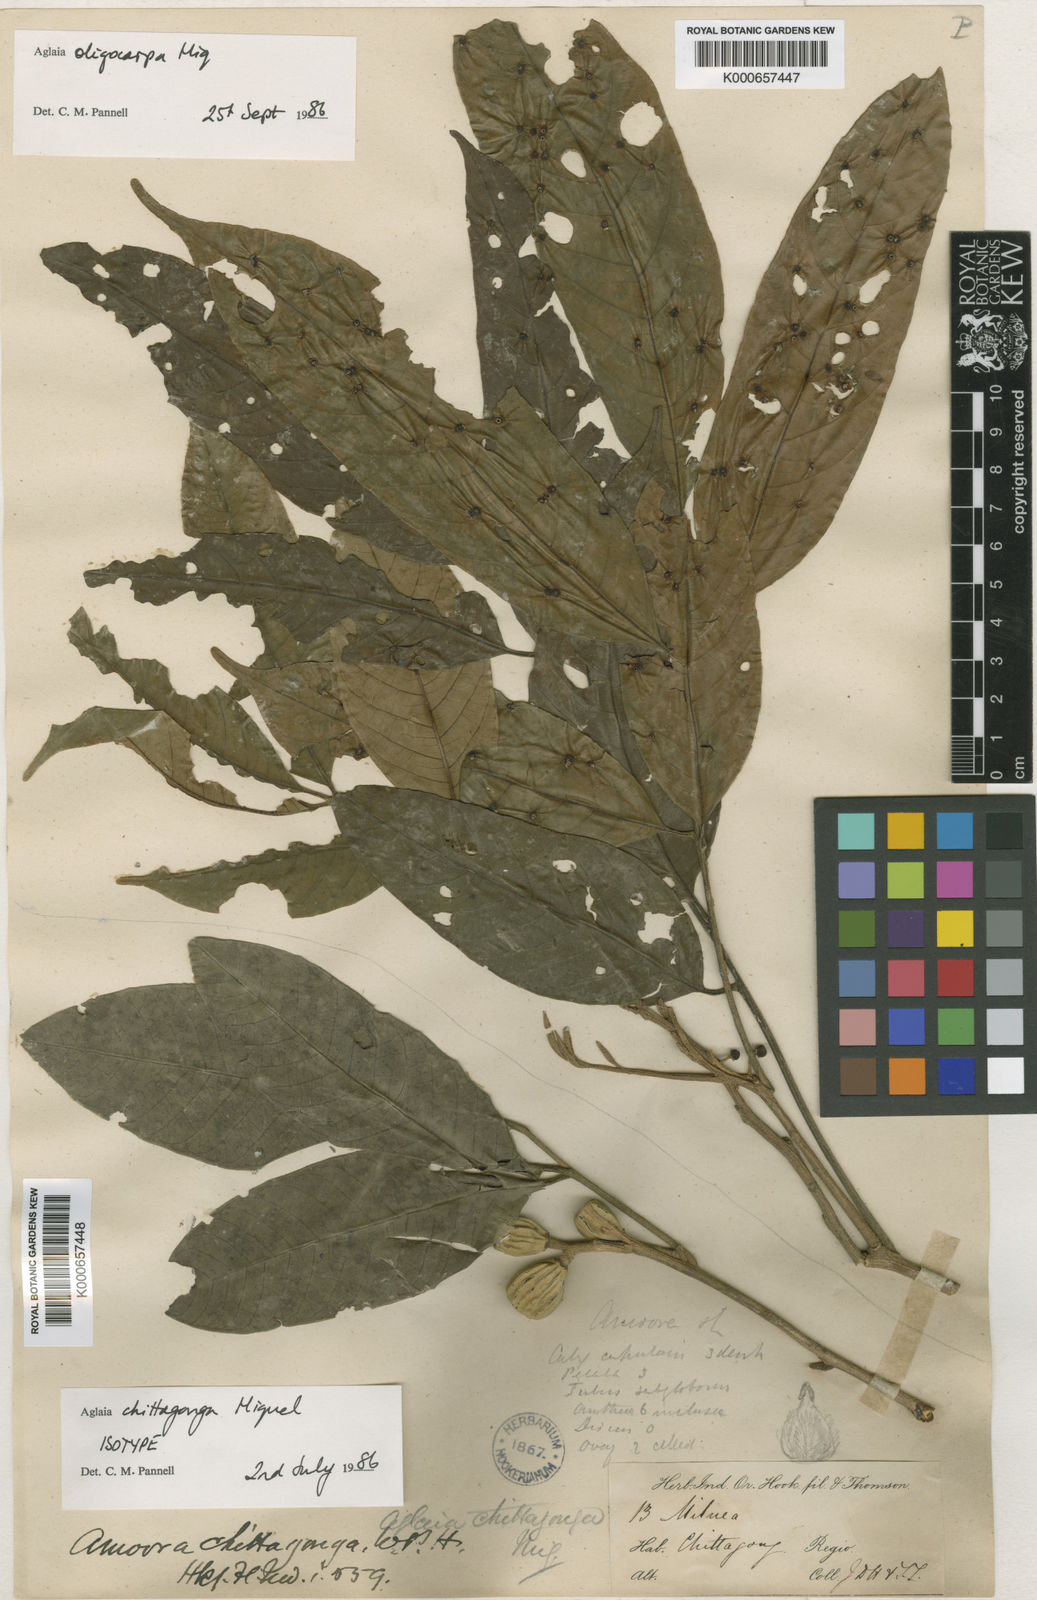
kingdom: Plantae
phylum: Tracheophyta
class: Magnoliopsida
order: Sapindales
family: Meliaceae
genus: Aglaia
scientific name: Aglaia chittagonga
